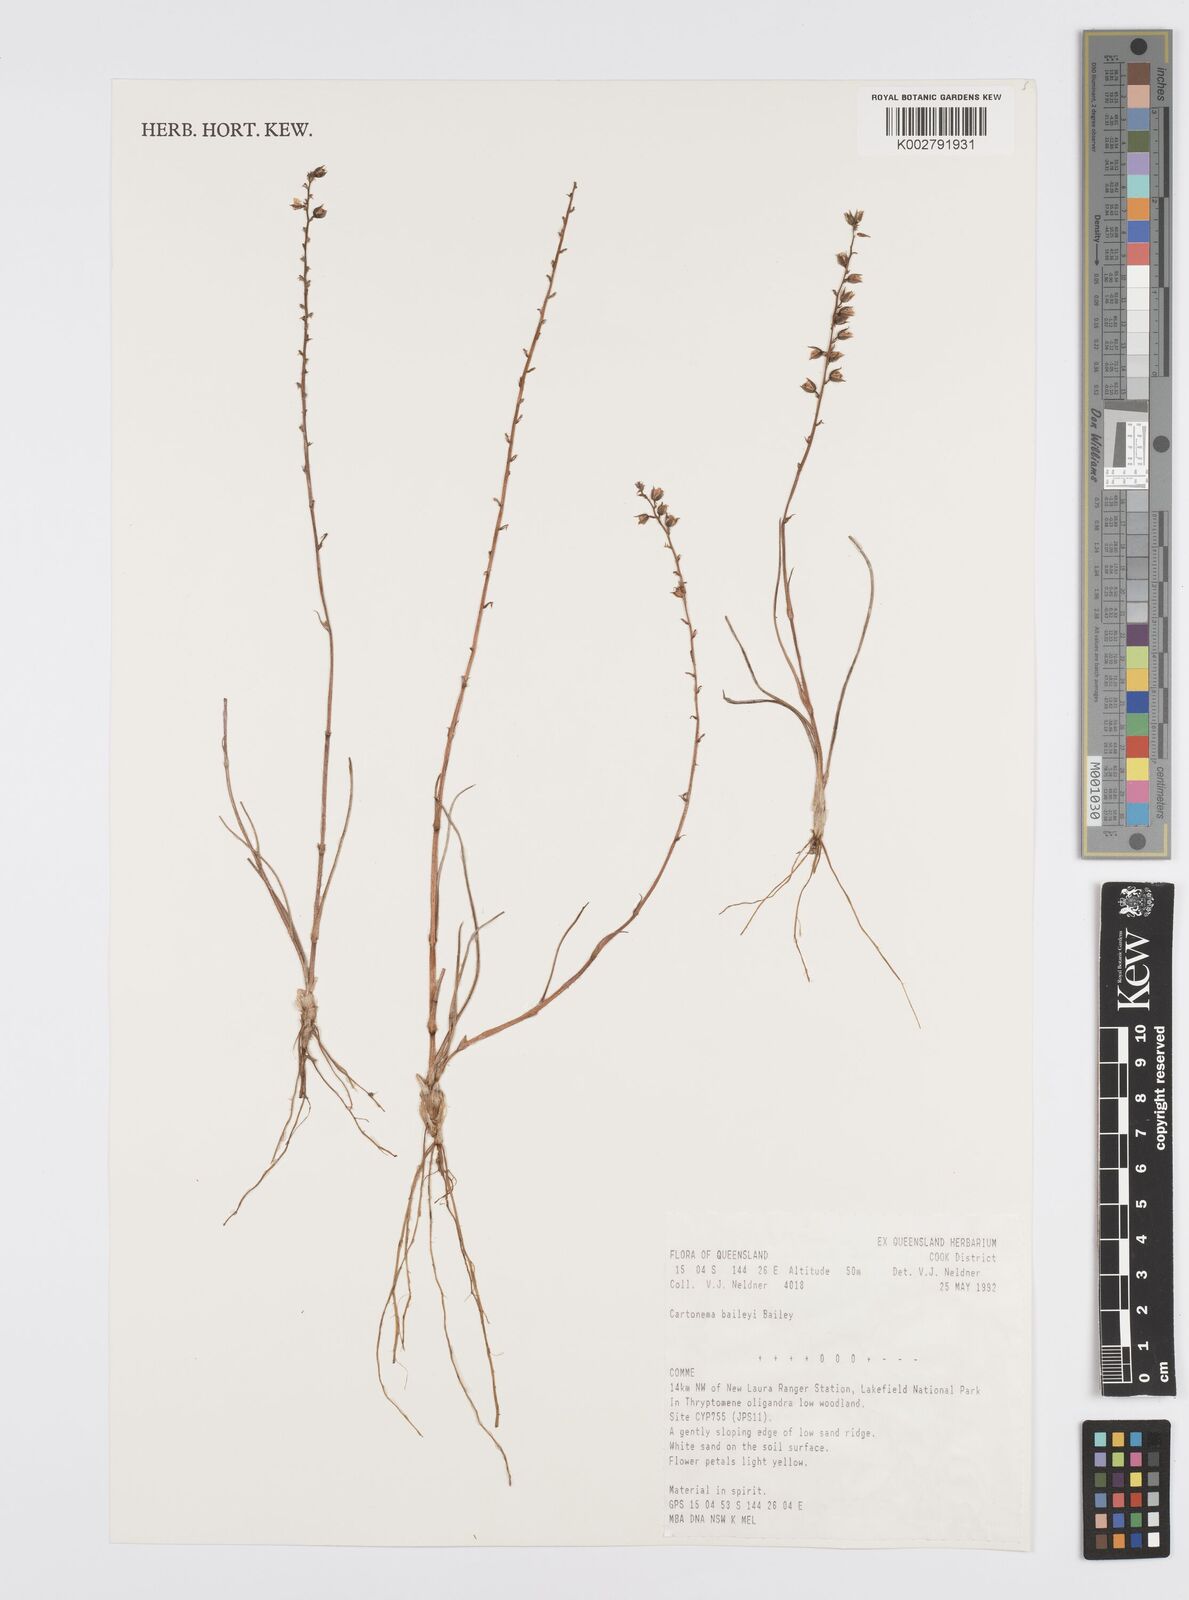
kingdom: Plantae
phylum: Tracheophyta
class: Liliopsida
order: Commelinales
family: Commelinaceae
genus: Cartonema
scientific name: Cartonema baileyi
